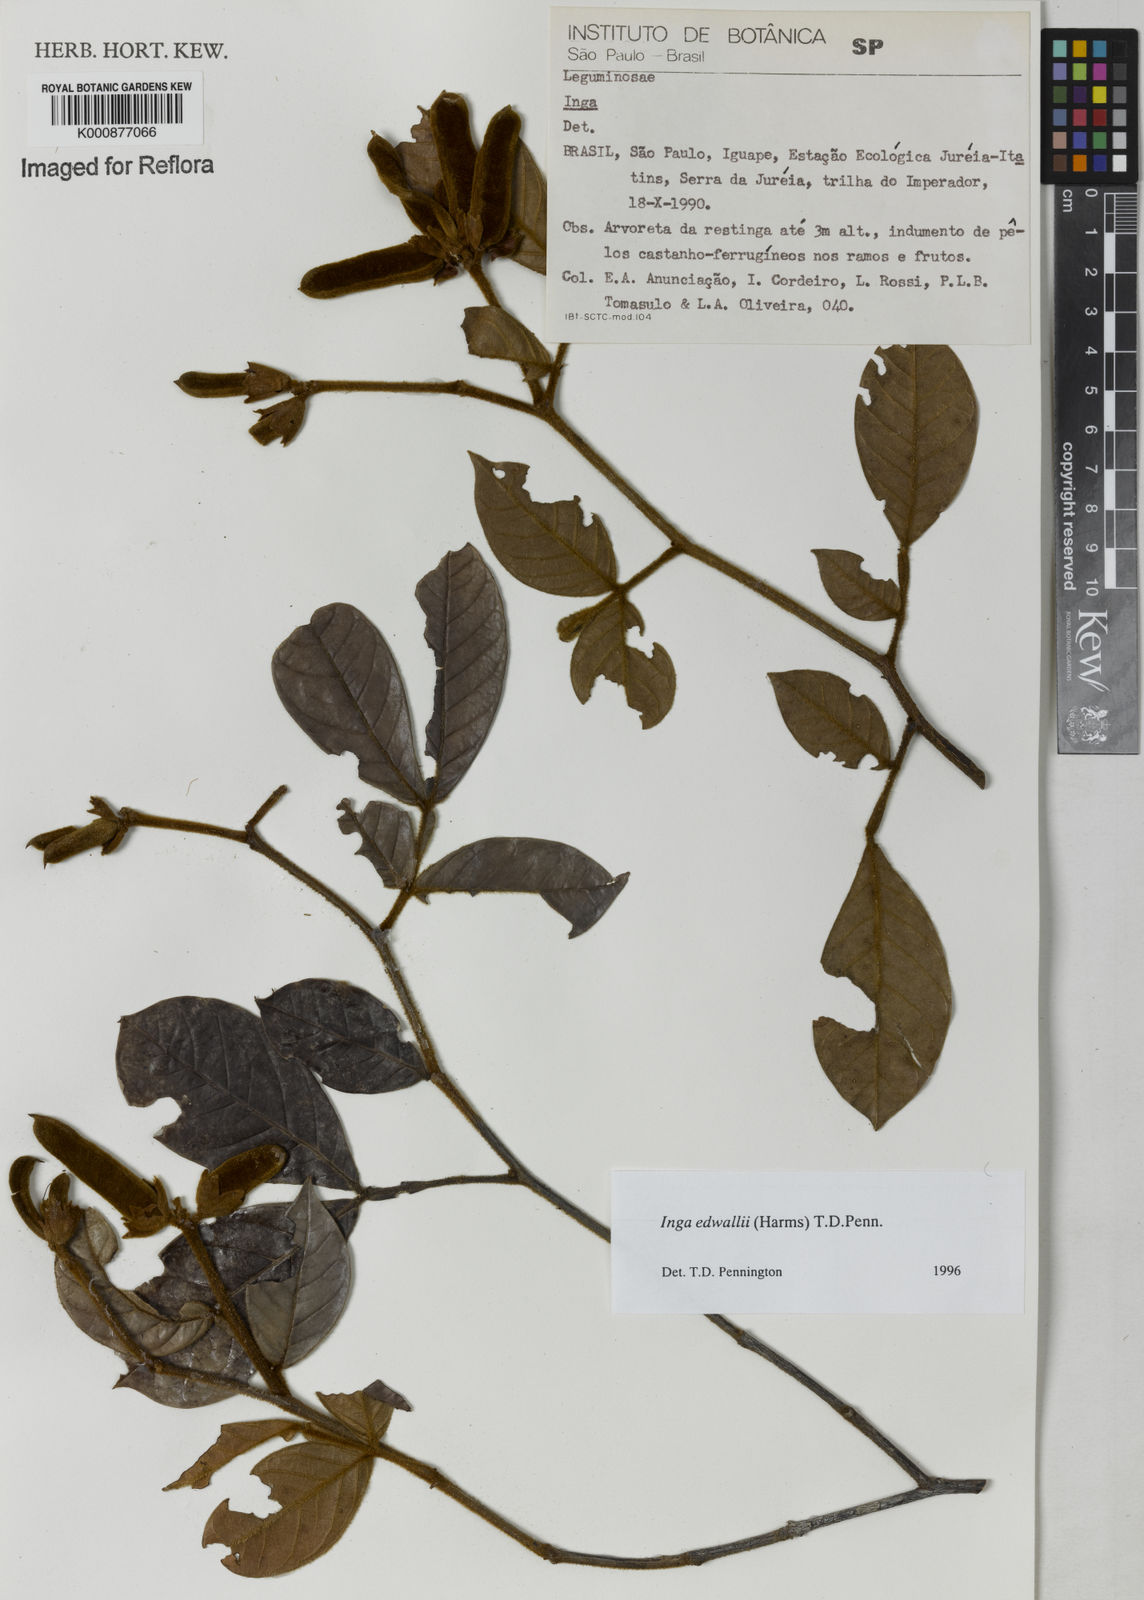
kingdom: Plantae
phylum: Tracheophyta
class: Magnoliopsida
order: Fabales
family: Fabaceae
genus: Inga
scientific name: Inga edwallii
